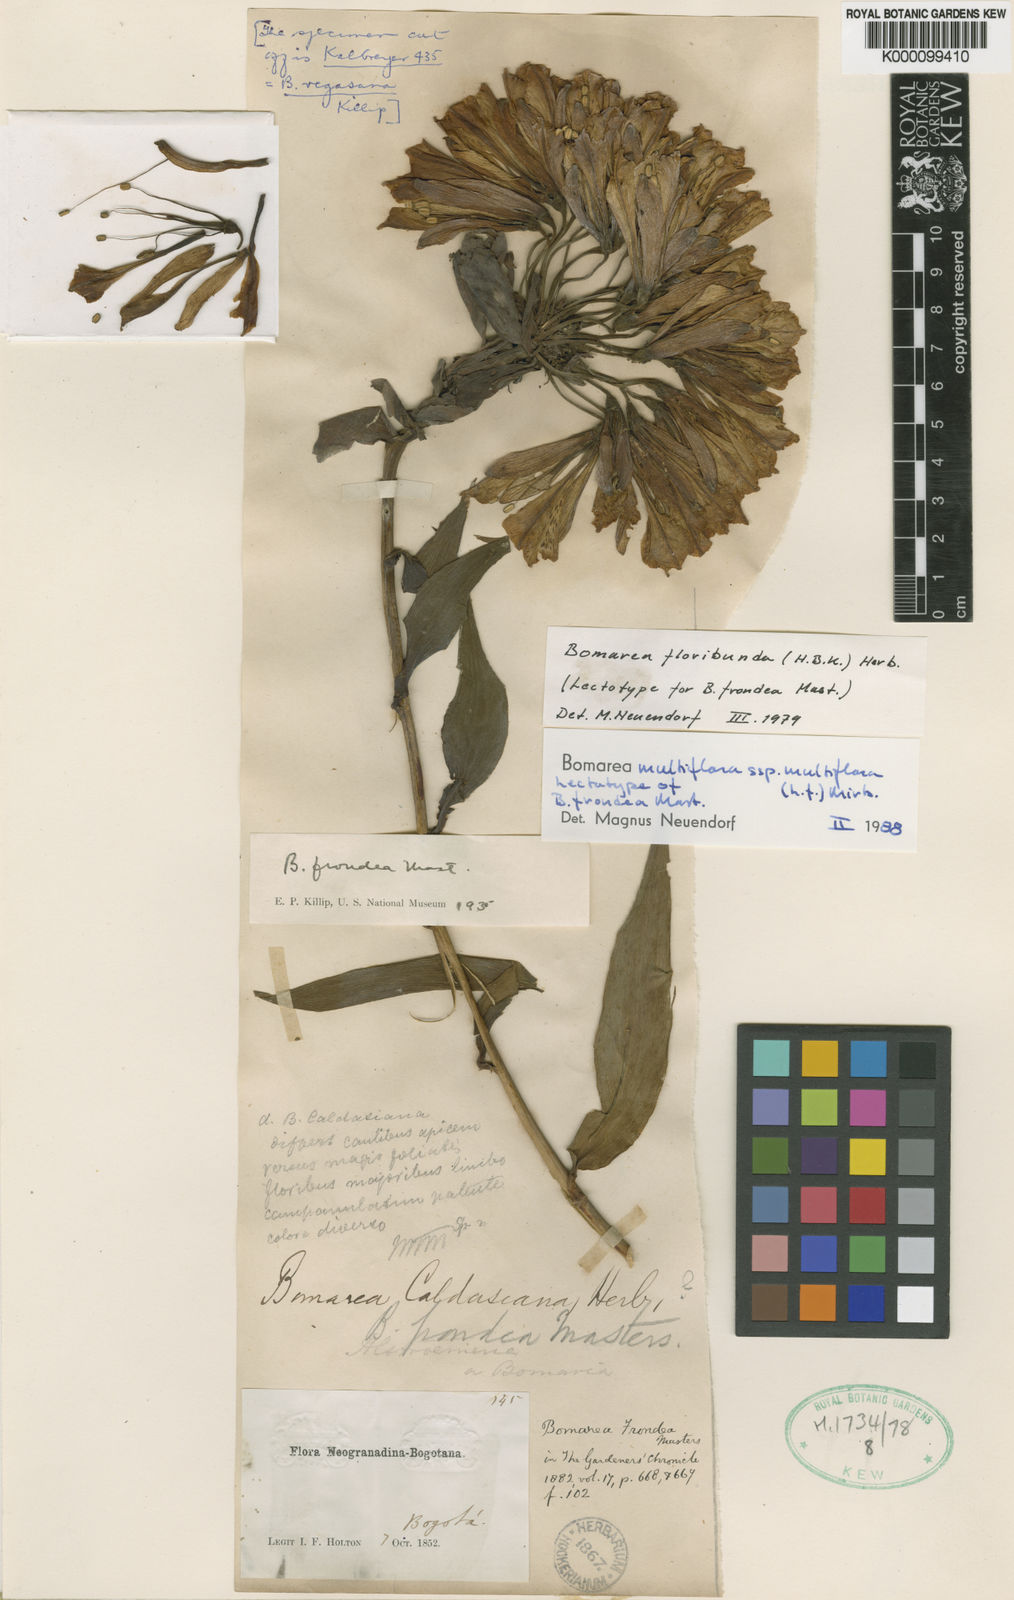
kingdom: Plantae
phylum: Tracheophyta
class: Liliopsida
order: Liliales
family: Alstroemeriaceae
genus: Bomarea
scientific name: Bomarea multiflora
